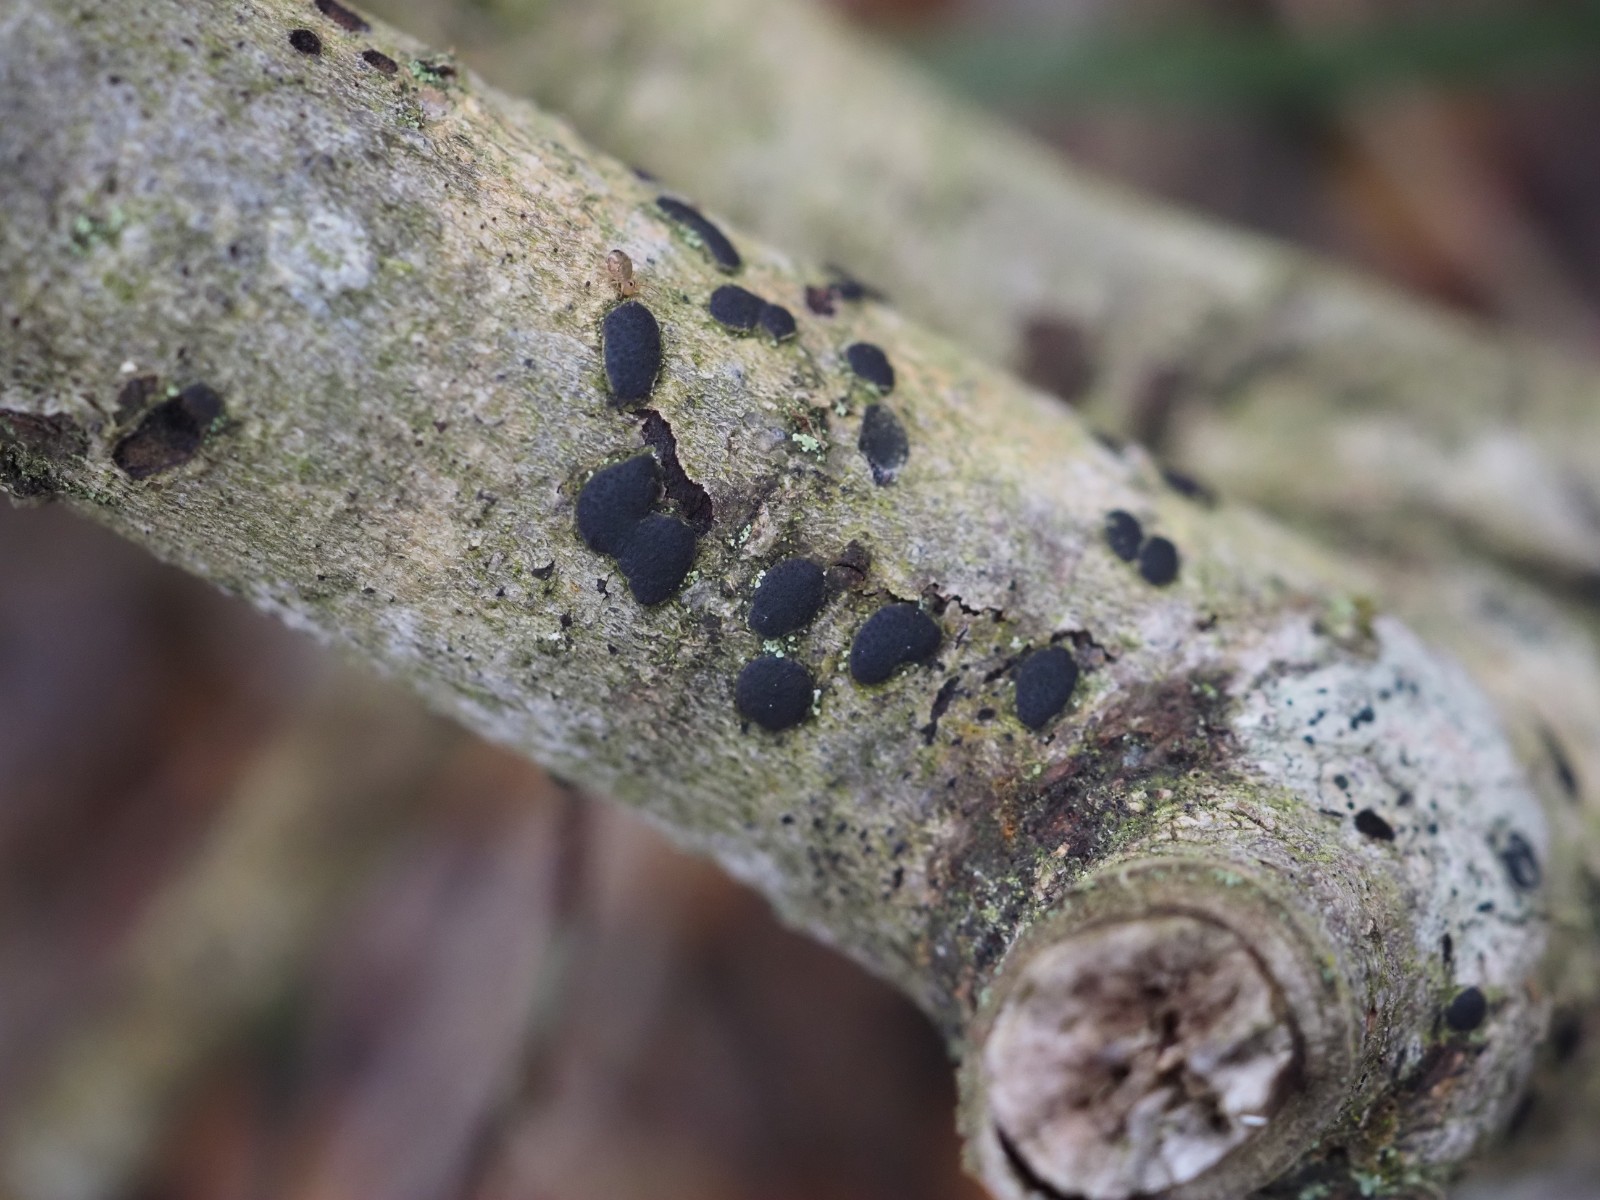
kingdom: Fungi
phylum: Ascomycota
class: Sordariomycetes
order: Xylariales
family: Diatrypaceae
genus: Diatrype
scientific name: Diatrype bullata
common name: pile-kulskorpe
